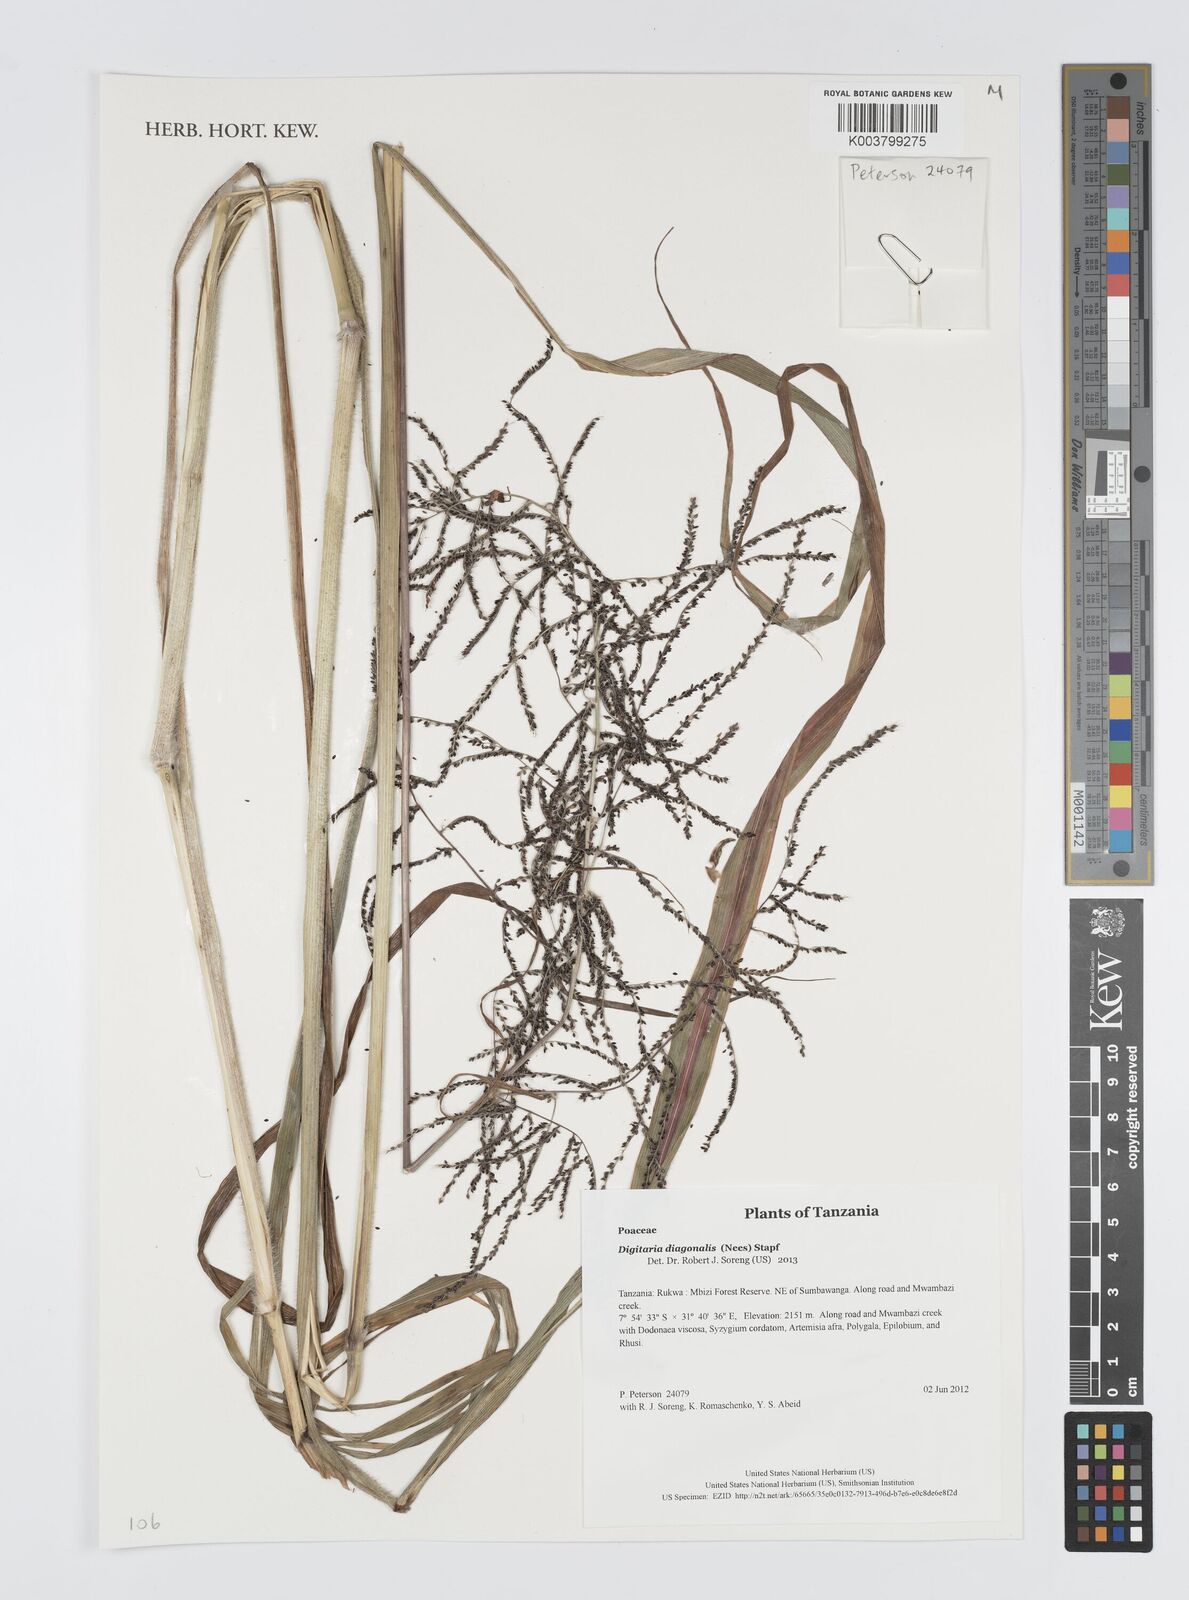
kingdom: Plantae
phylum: Tracheophyta
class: Liliopsida
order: Poales
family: Poaceae
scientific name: Poaceae
